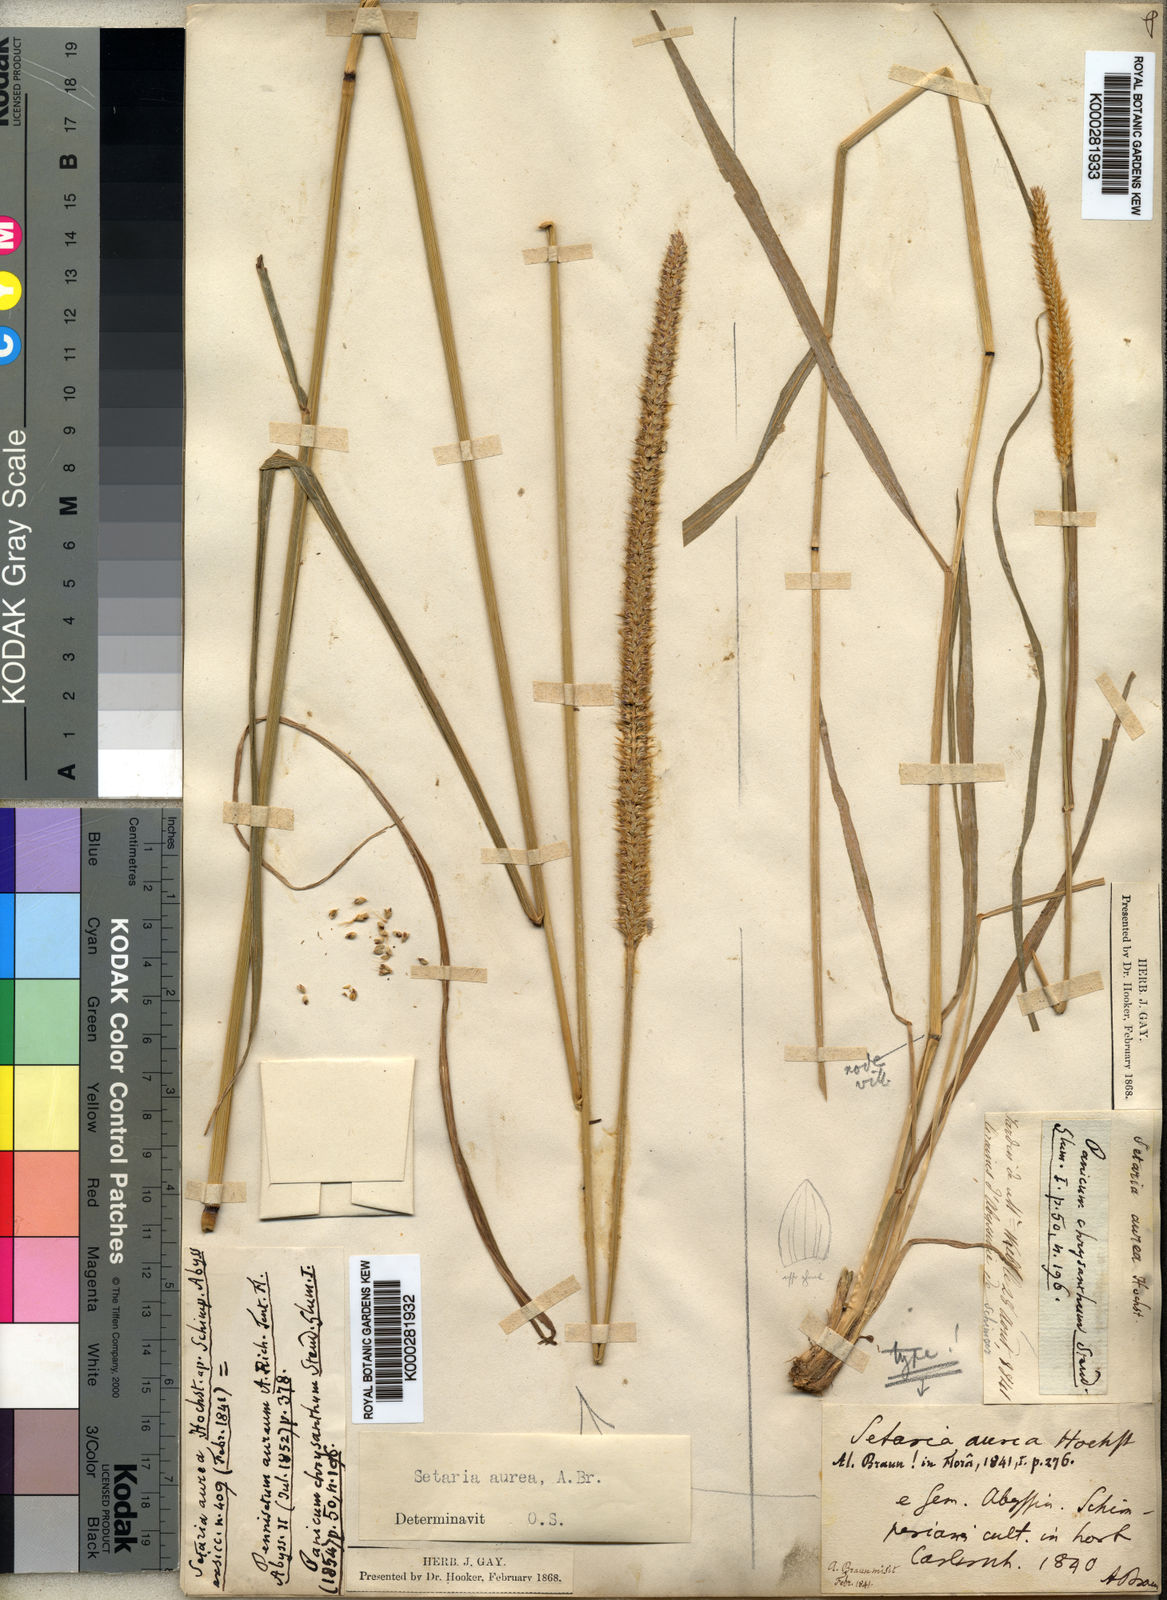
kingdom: Plantae
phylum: Tracheophyta
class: Liliopsida
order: Poales
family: Poaceae
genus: Setaria
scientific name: Setaria sphacelata
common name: African bristlegrass
